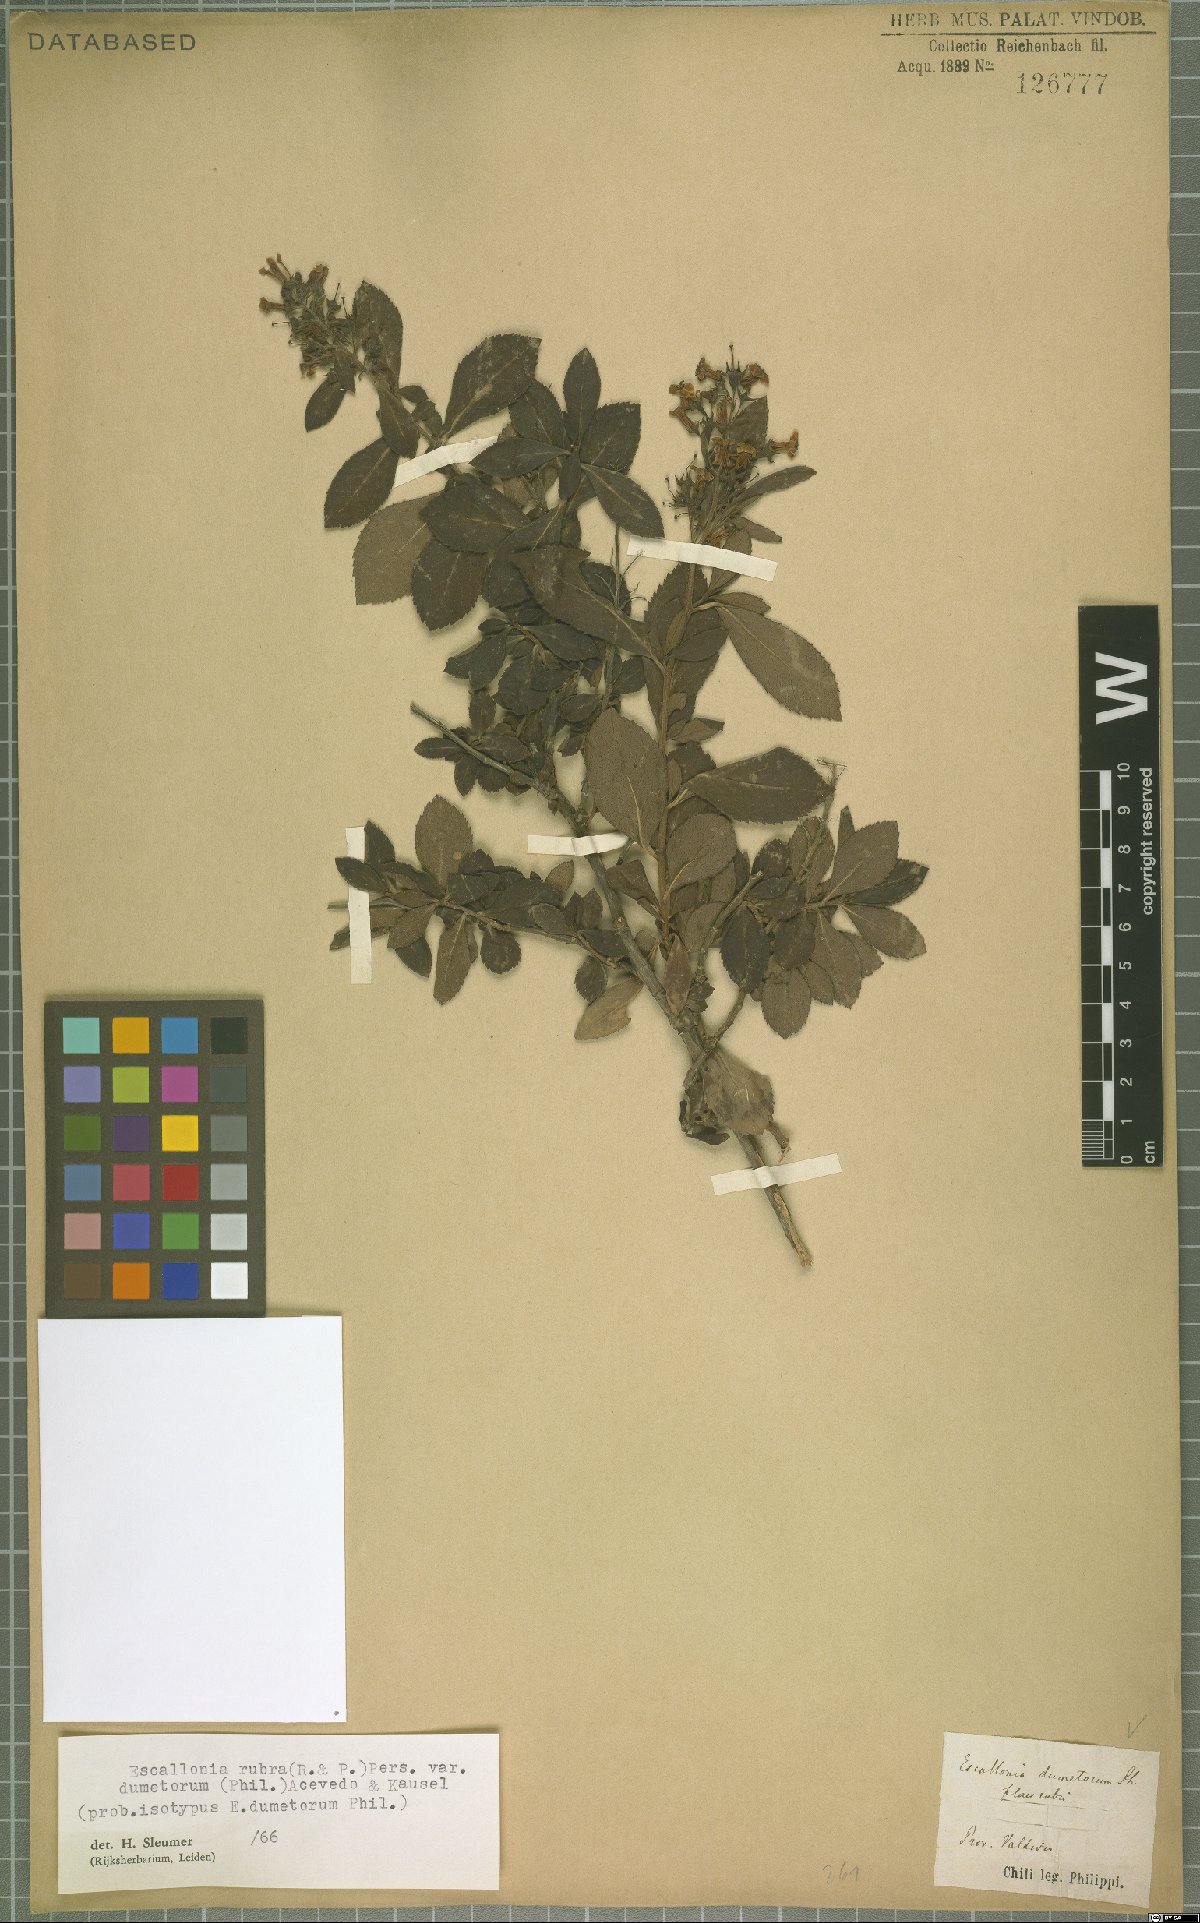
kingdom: Plantae
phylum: Tracheophyta
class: Magnoliopsida
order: Escalloniales
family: Escalloniaceae
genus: Escallonia
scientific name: Escallonia rubra
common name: Redclaws
